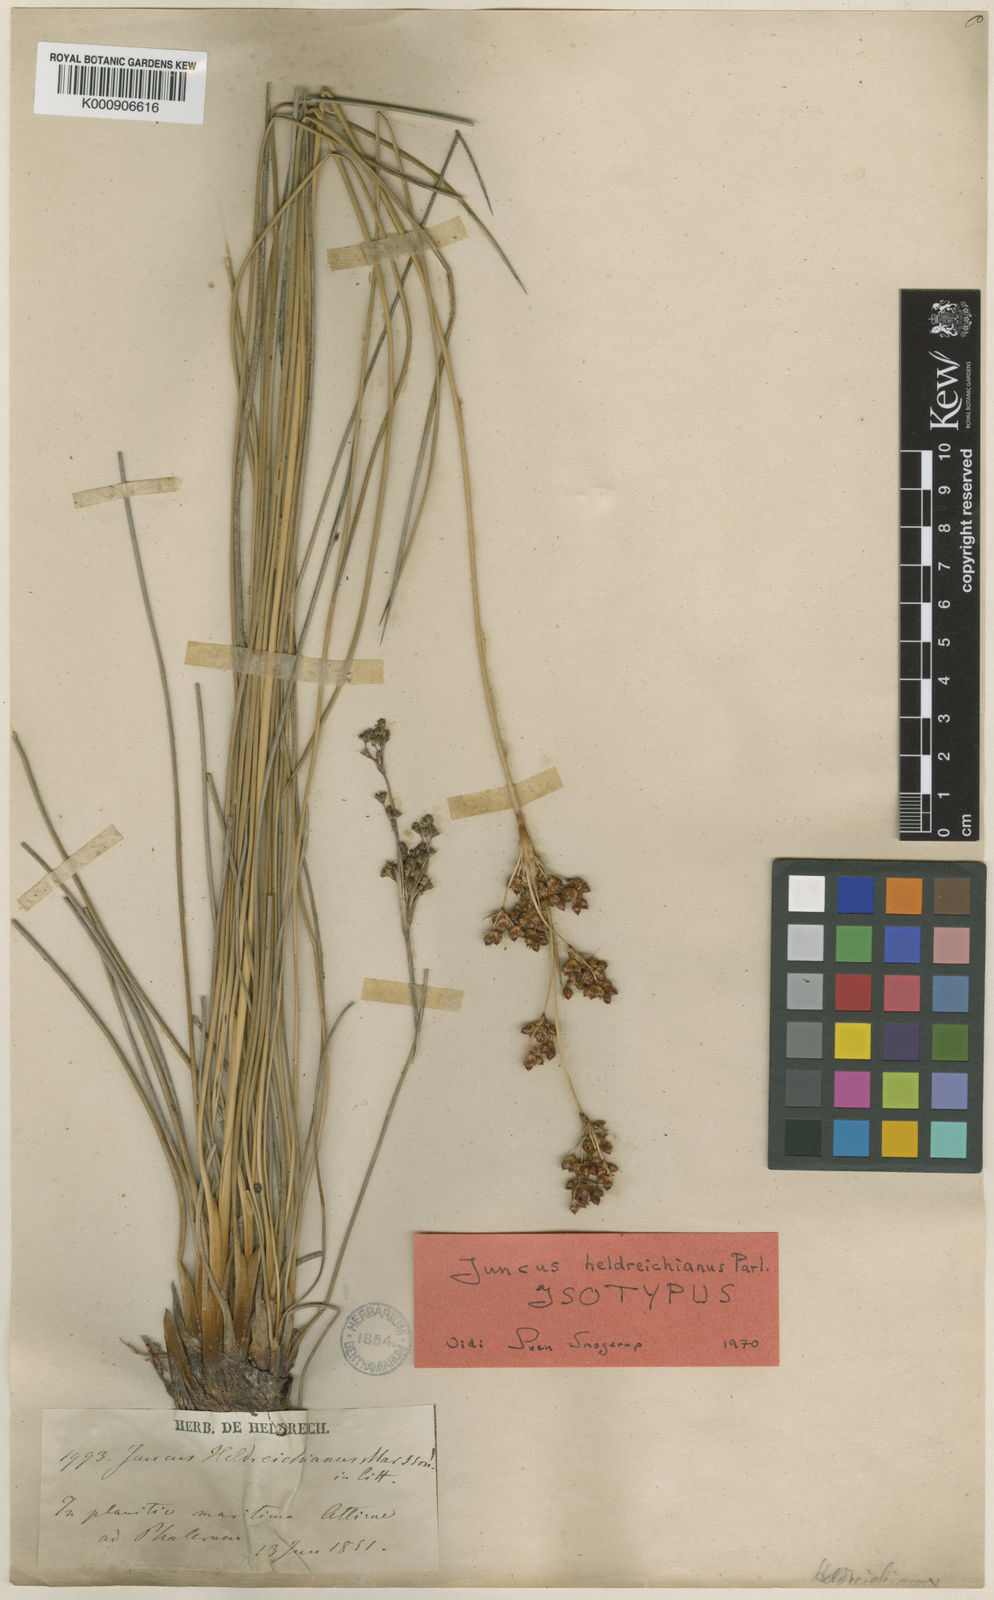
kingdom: Plantae
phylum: Tracheophyta
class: Liliopsida
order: Poales
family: Juncaceae
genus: Juncus
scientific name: Juncus heldreichianus
